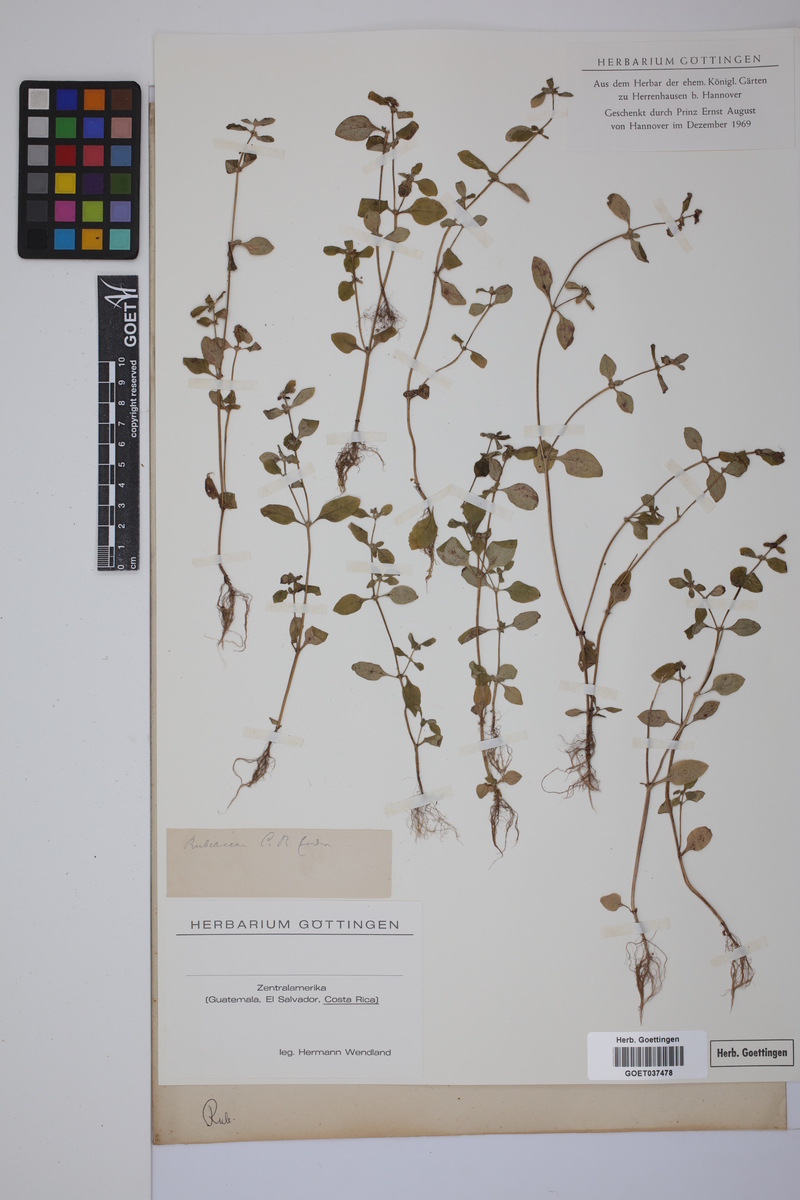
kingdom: Plantae
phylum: Tracheophyta
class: Magnoliopsida
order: Gentianales
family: Rubiaceae
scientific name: Rubiaceae
